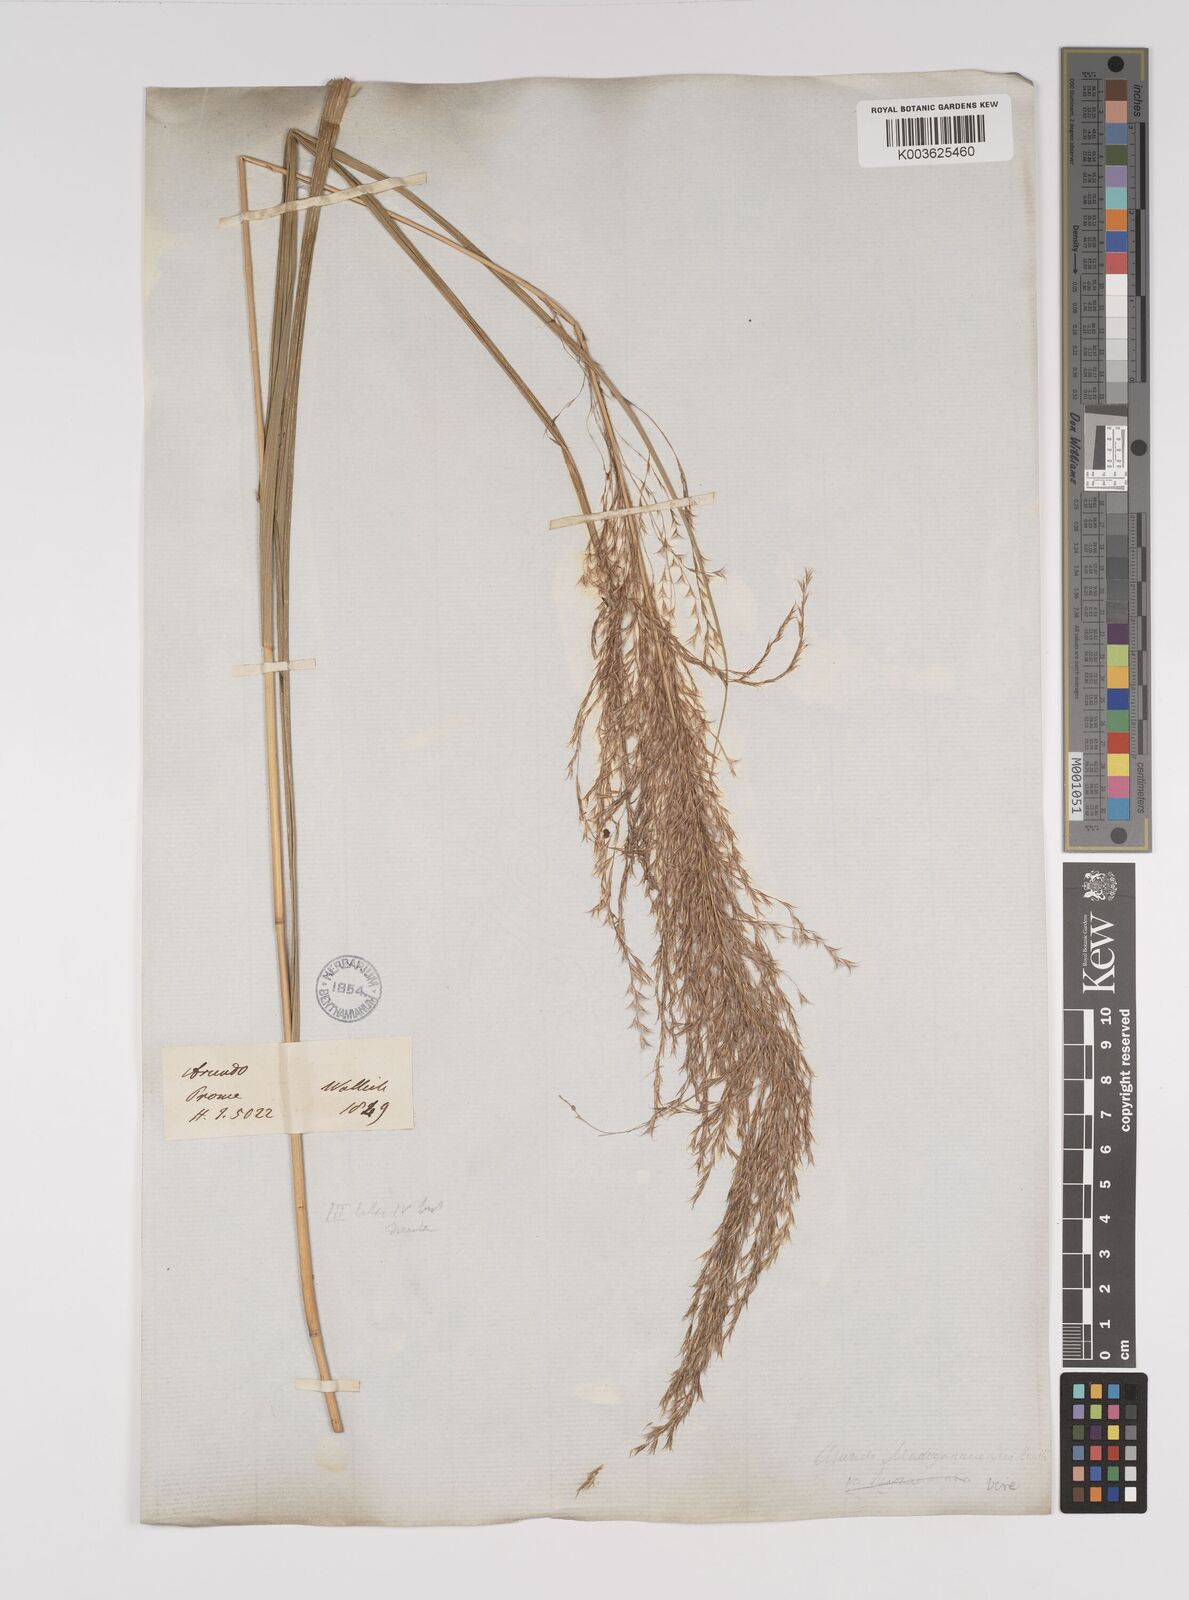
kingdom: Plantae
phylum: Tracheophyta
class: Liliopsida
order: Poales
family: Poaceae
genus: Neyraudia
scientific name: Neyraudia reynaudiana
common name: Silkreed
